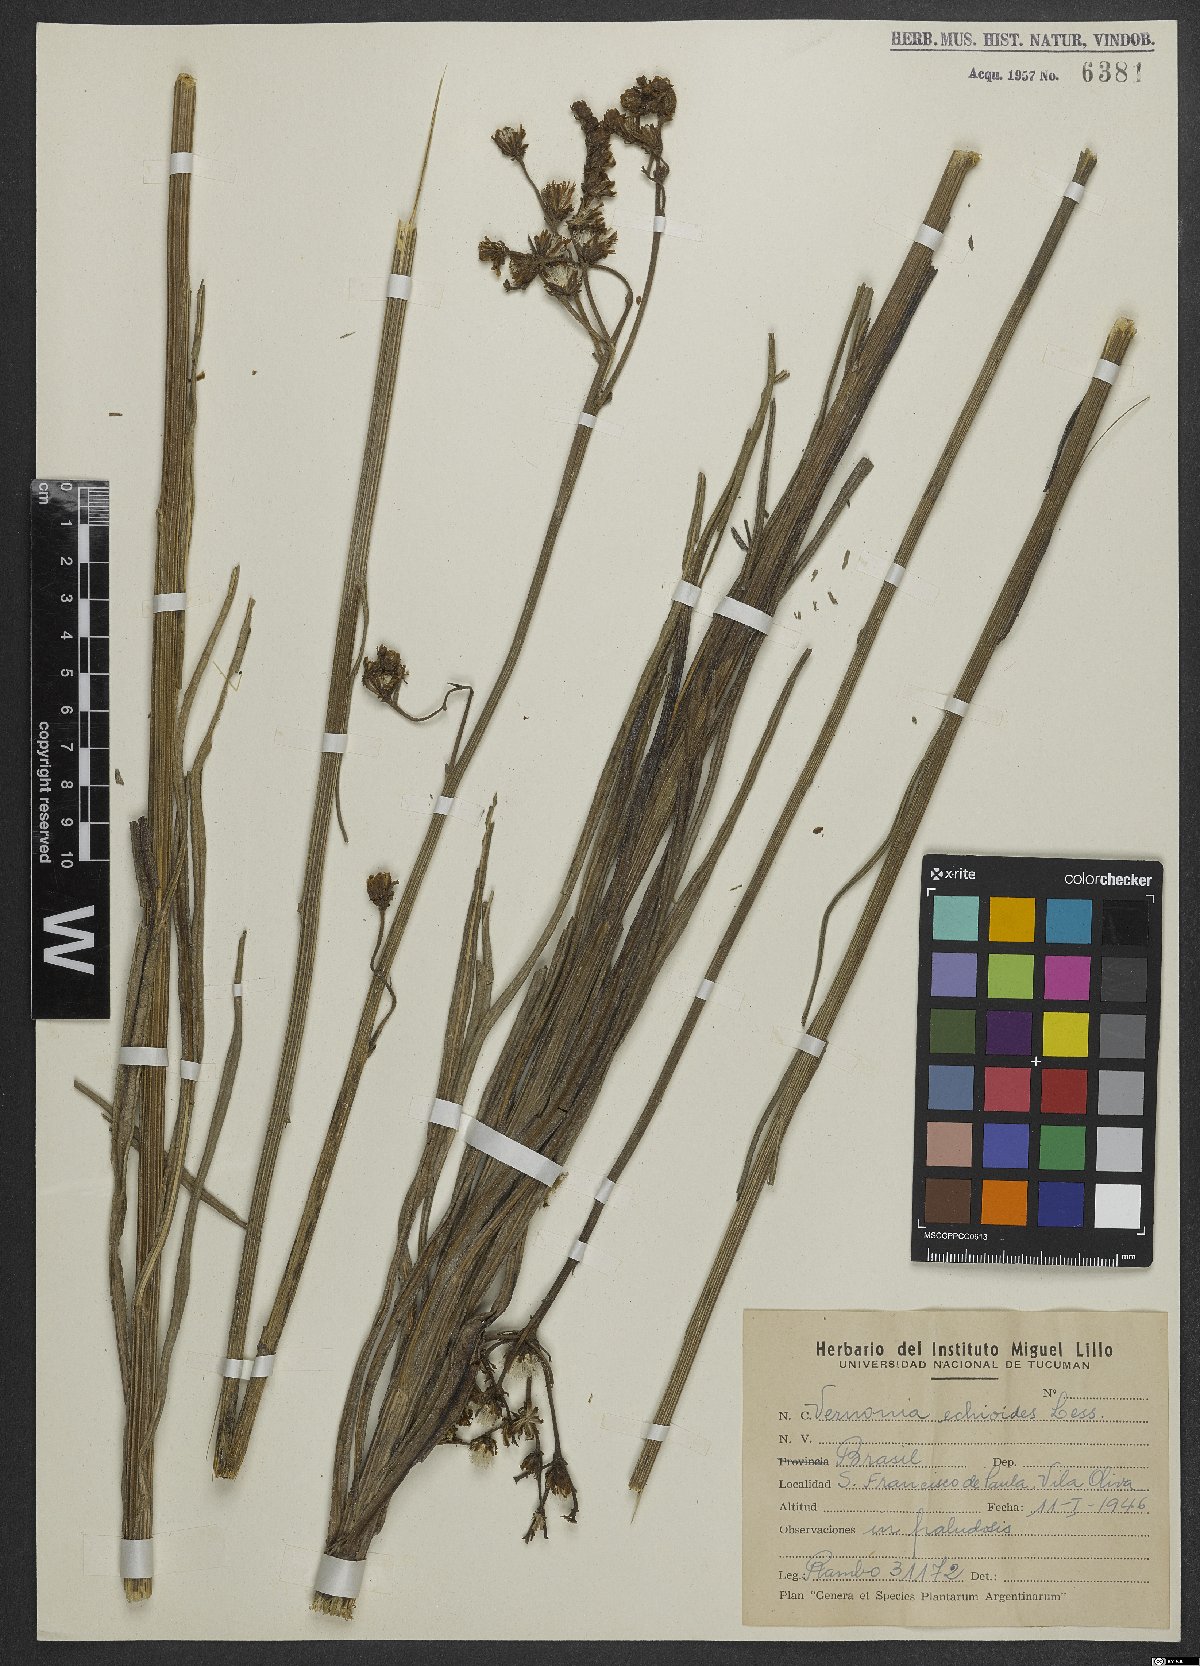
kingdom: Plantae
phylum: Tracheophyta
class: Magnoliopsida
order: Asterales
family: Asteraceae
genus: Vernonia
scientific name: Vernonia echioides
